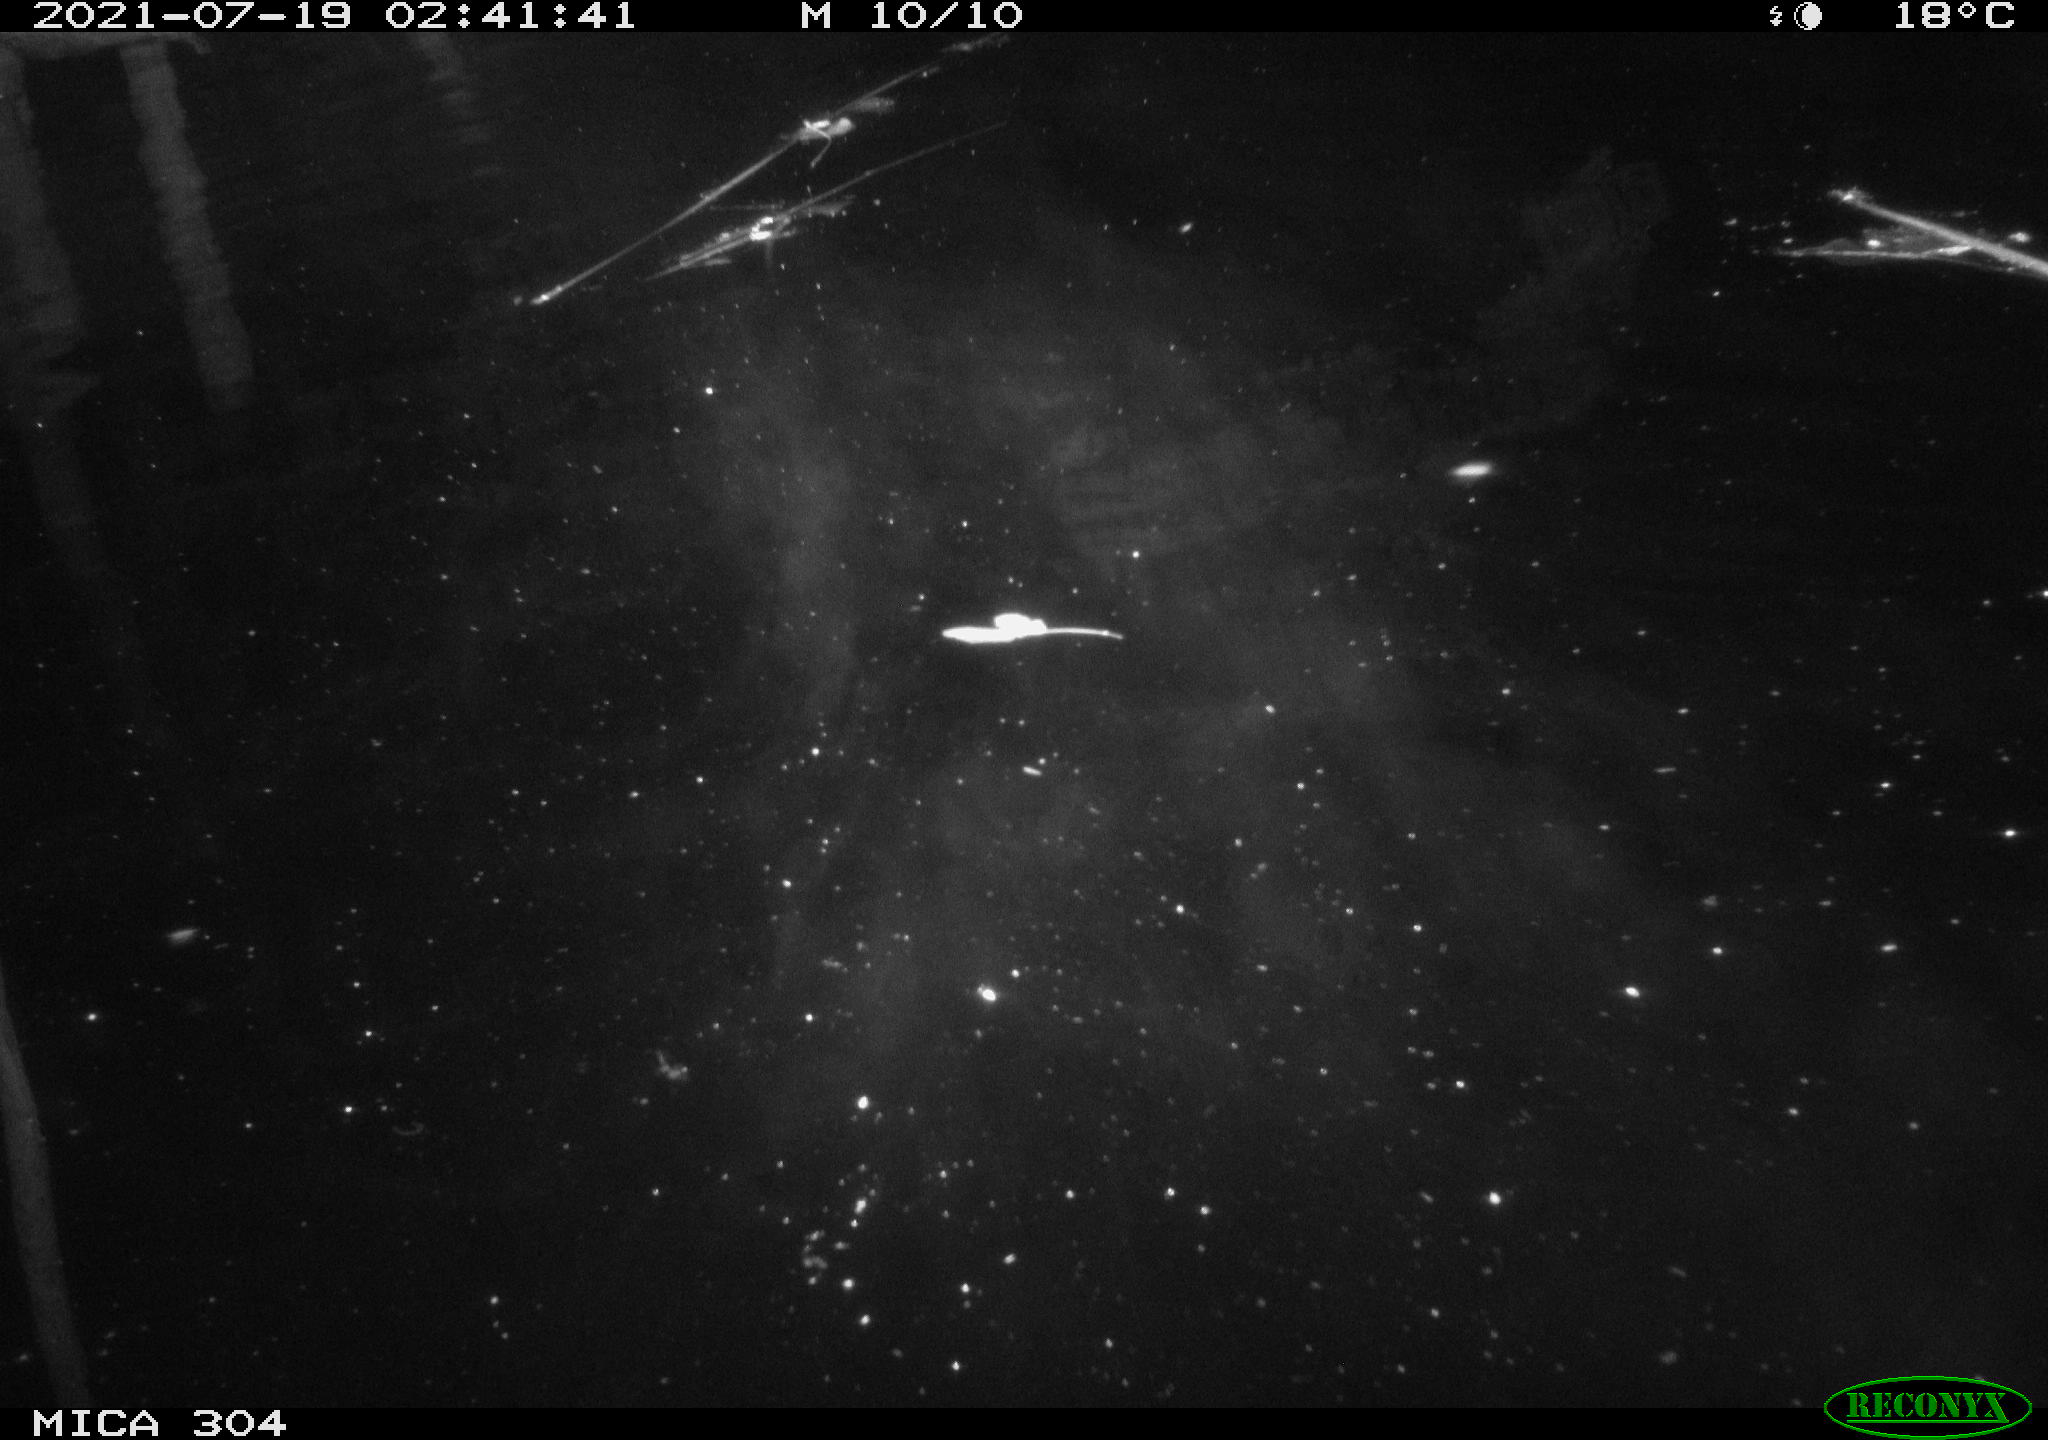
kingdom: Animalia
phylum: Chordata
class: Aves
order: Anseriformes
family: Anatidae
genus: Anas
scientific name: Anas platyrhynchos
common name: Mallard
